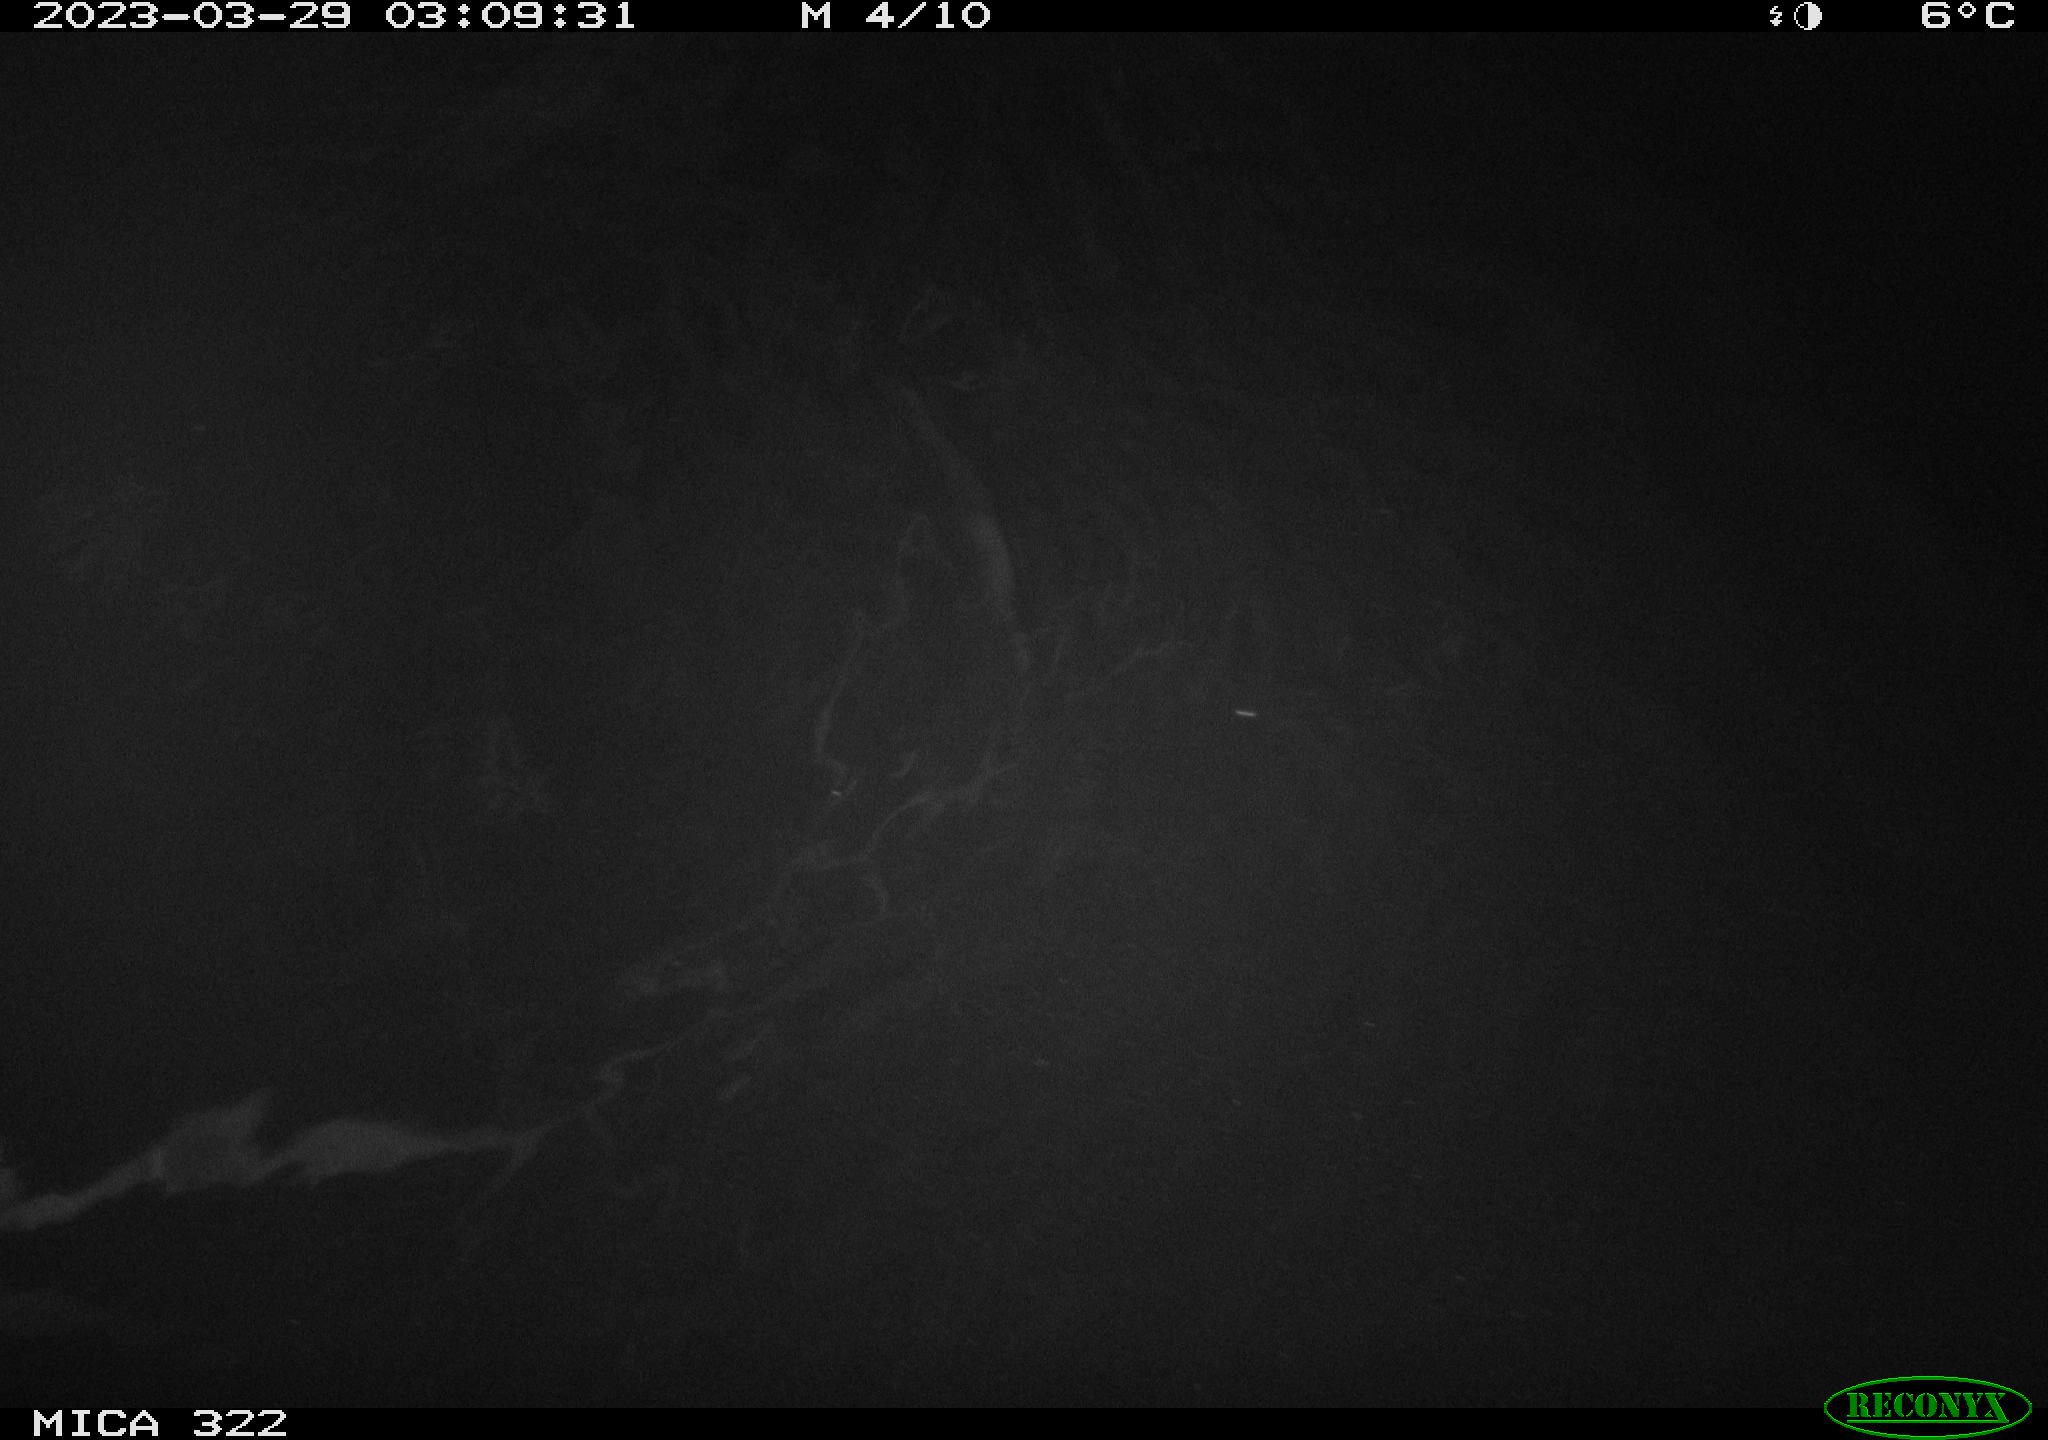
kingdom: Animalia
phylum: Chordata
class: Aves
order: Anseriformes
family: Anatidae
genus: Anas
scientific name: Anas
